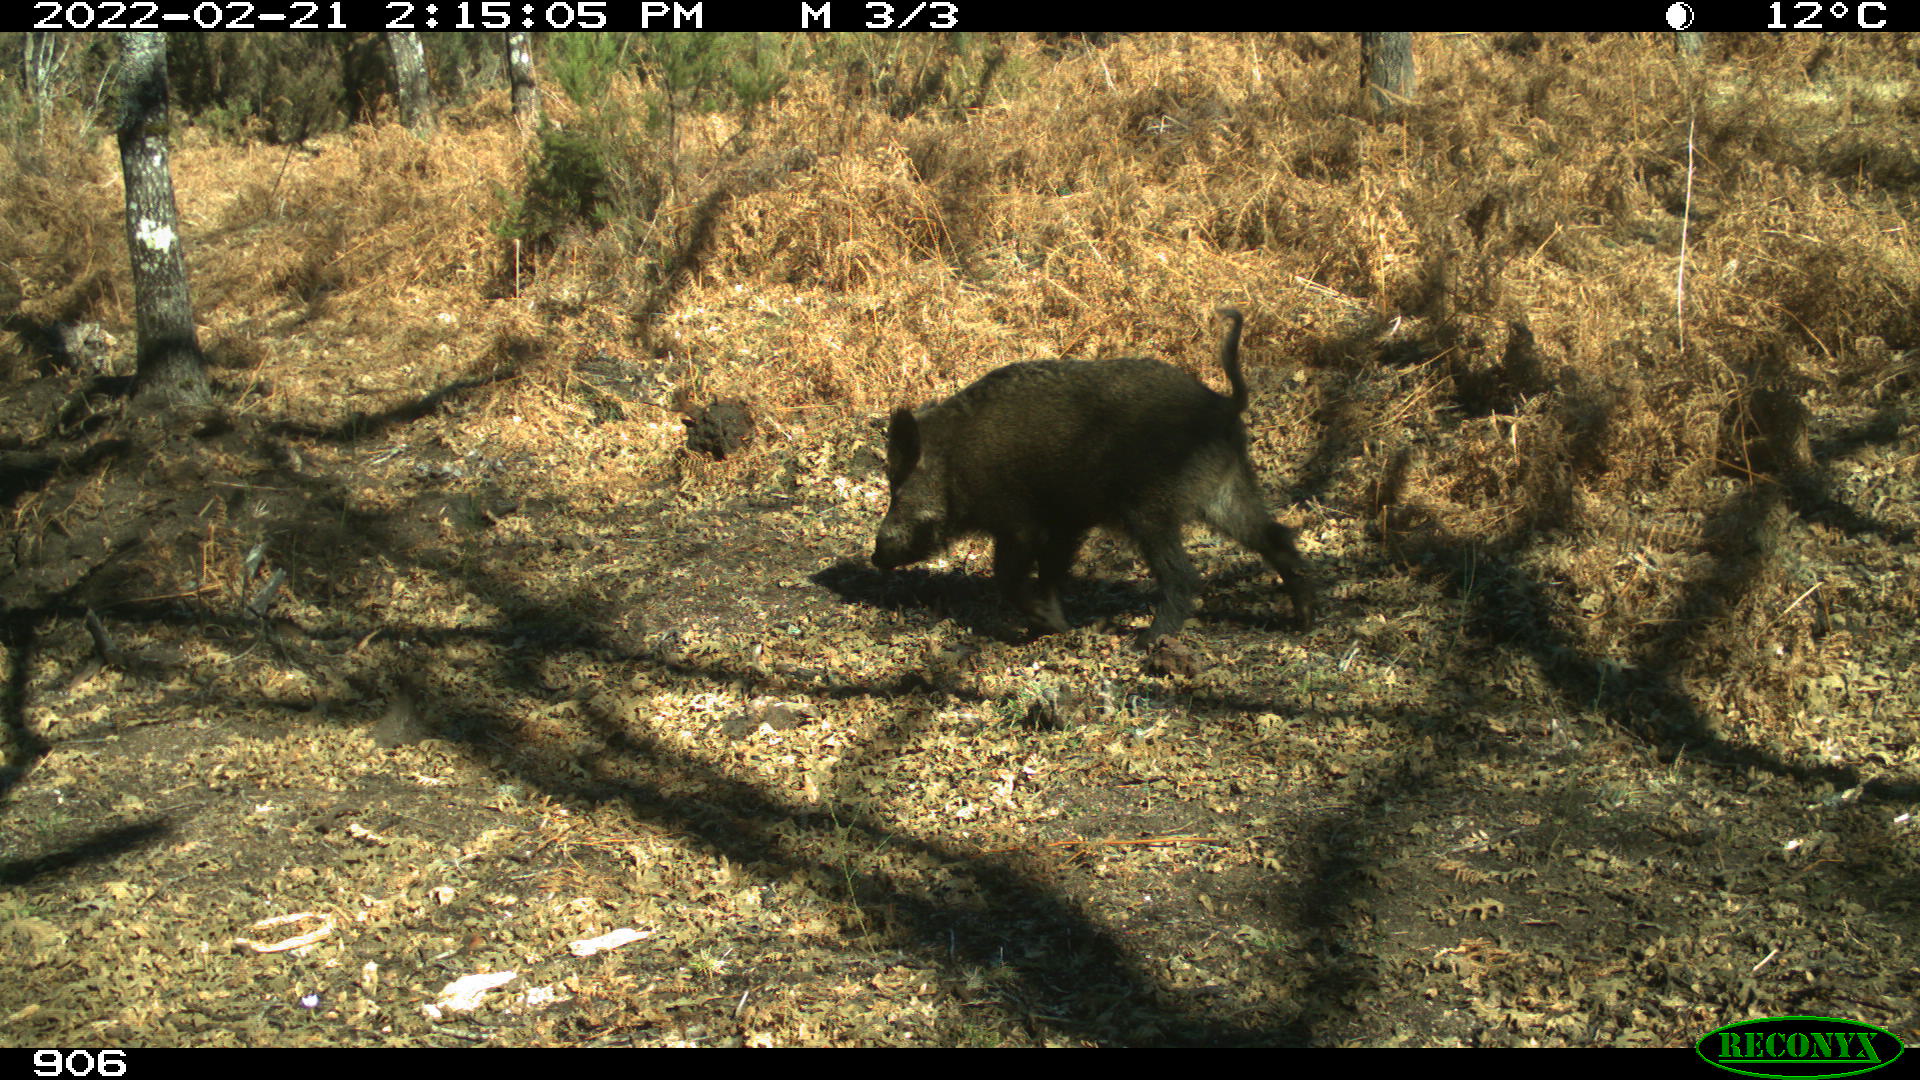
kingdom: Animalia
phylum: Chordata
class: Mammalia
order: Artiodactyla
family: Suidae
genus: Sus
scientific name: Sus scrofa
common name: Wild boar
